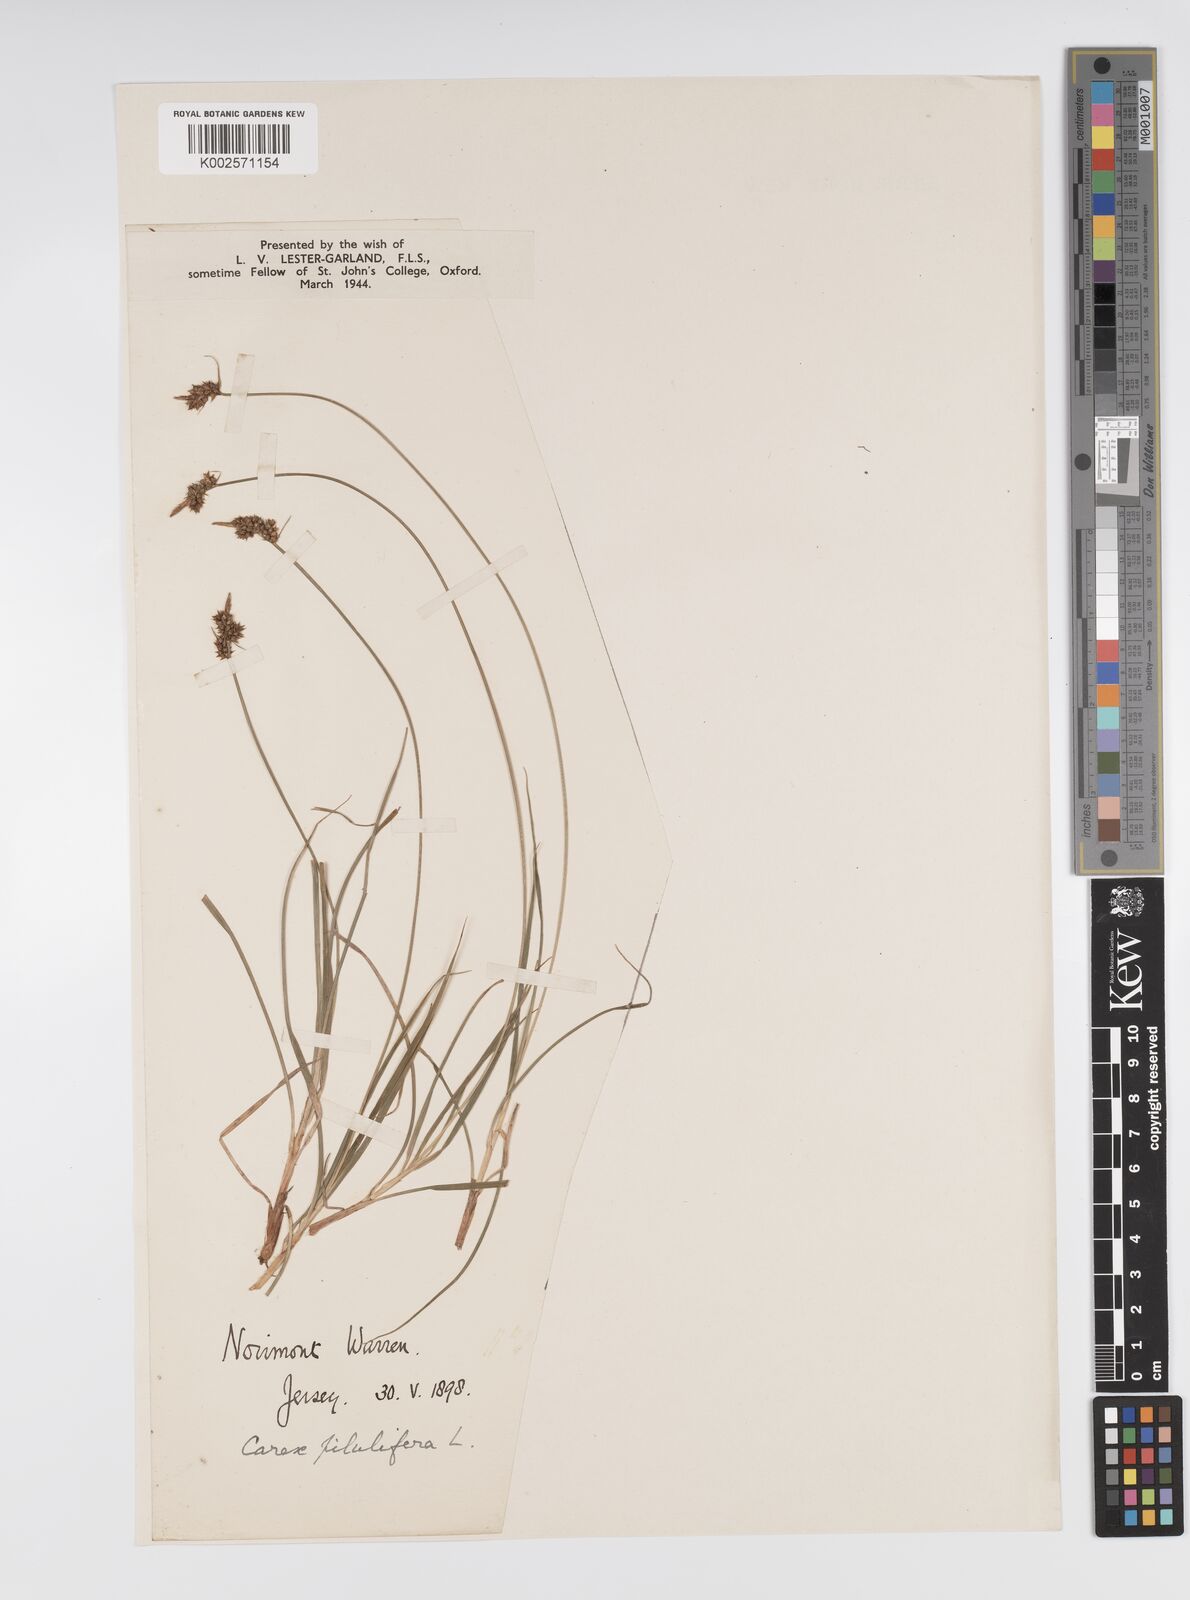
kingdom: Plantae
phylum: Tracheophyta
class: Liliopsida
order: Poales
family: Cyperaceae
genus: Carex
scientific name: Carex pilulifera
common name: Pill sedge
